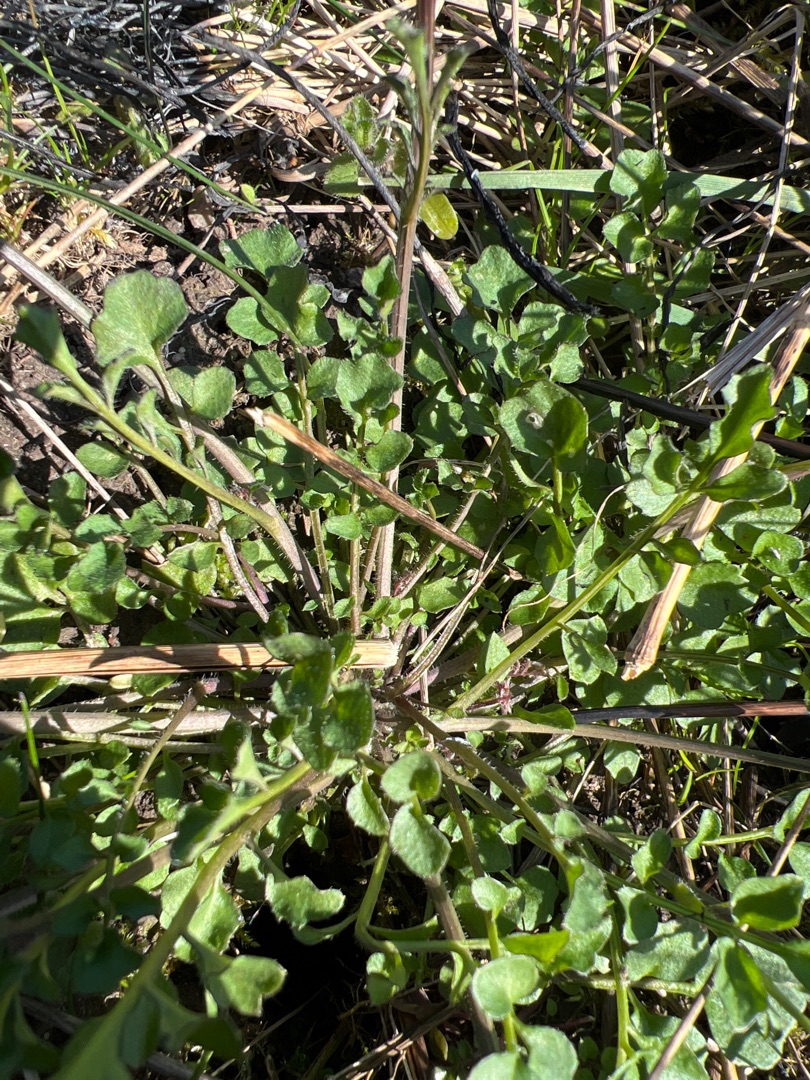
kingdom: Plantae
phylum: Tracheophyta
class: Magnoliopsida
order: Brassicales
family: Brassicaceae
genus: Cardamine
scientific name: Cardamine hirsuta
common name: Roset-springklap
